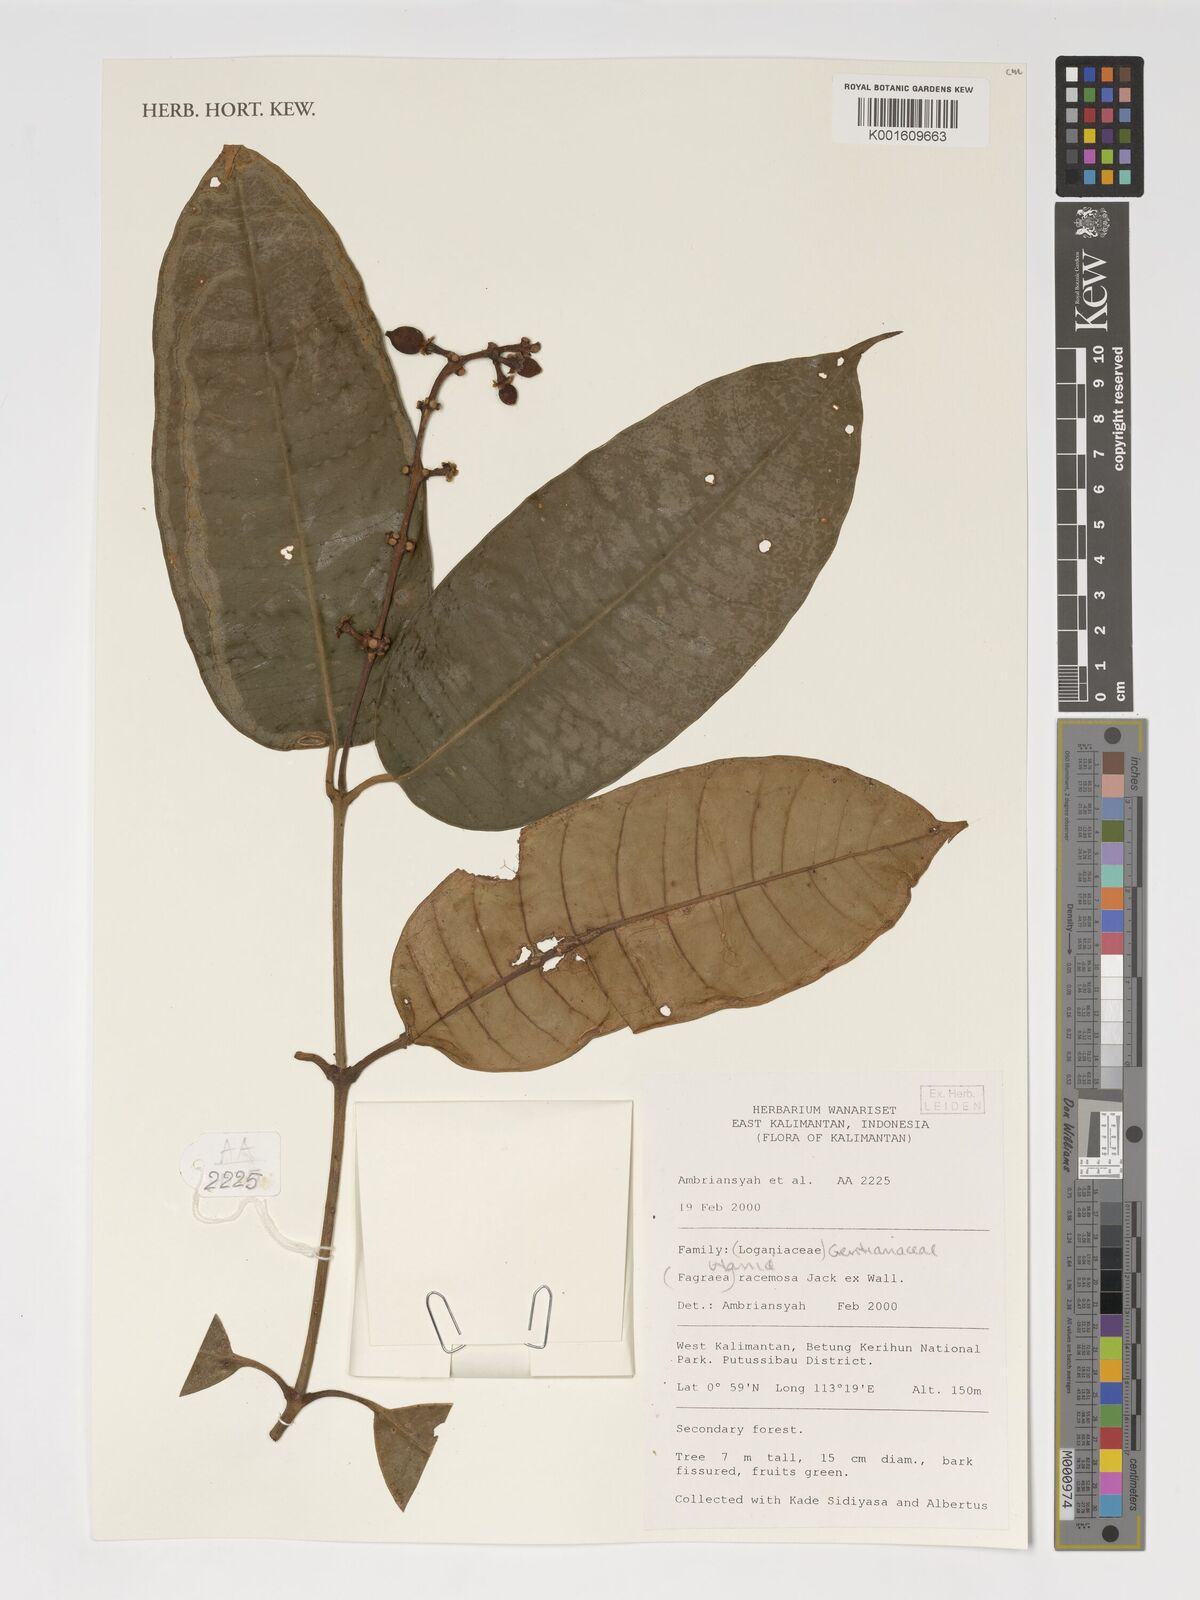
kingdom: Plantae
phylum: Tracheophyta
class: Magnoliopsida
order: Gentianales
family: Gentianaceae
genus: Utania
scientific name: Utania racemosa
